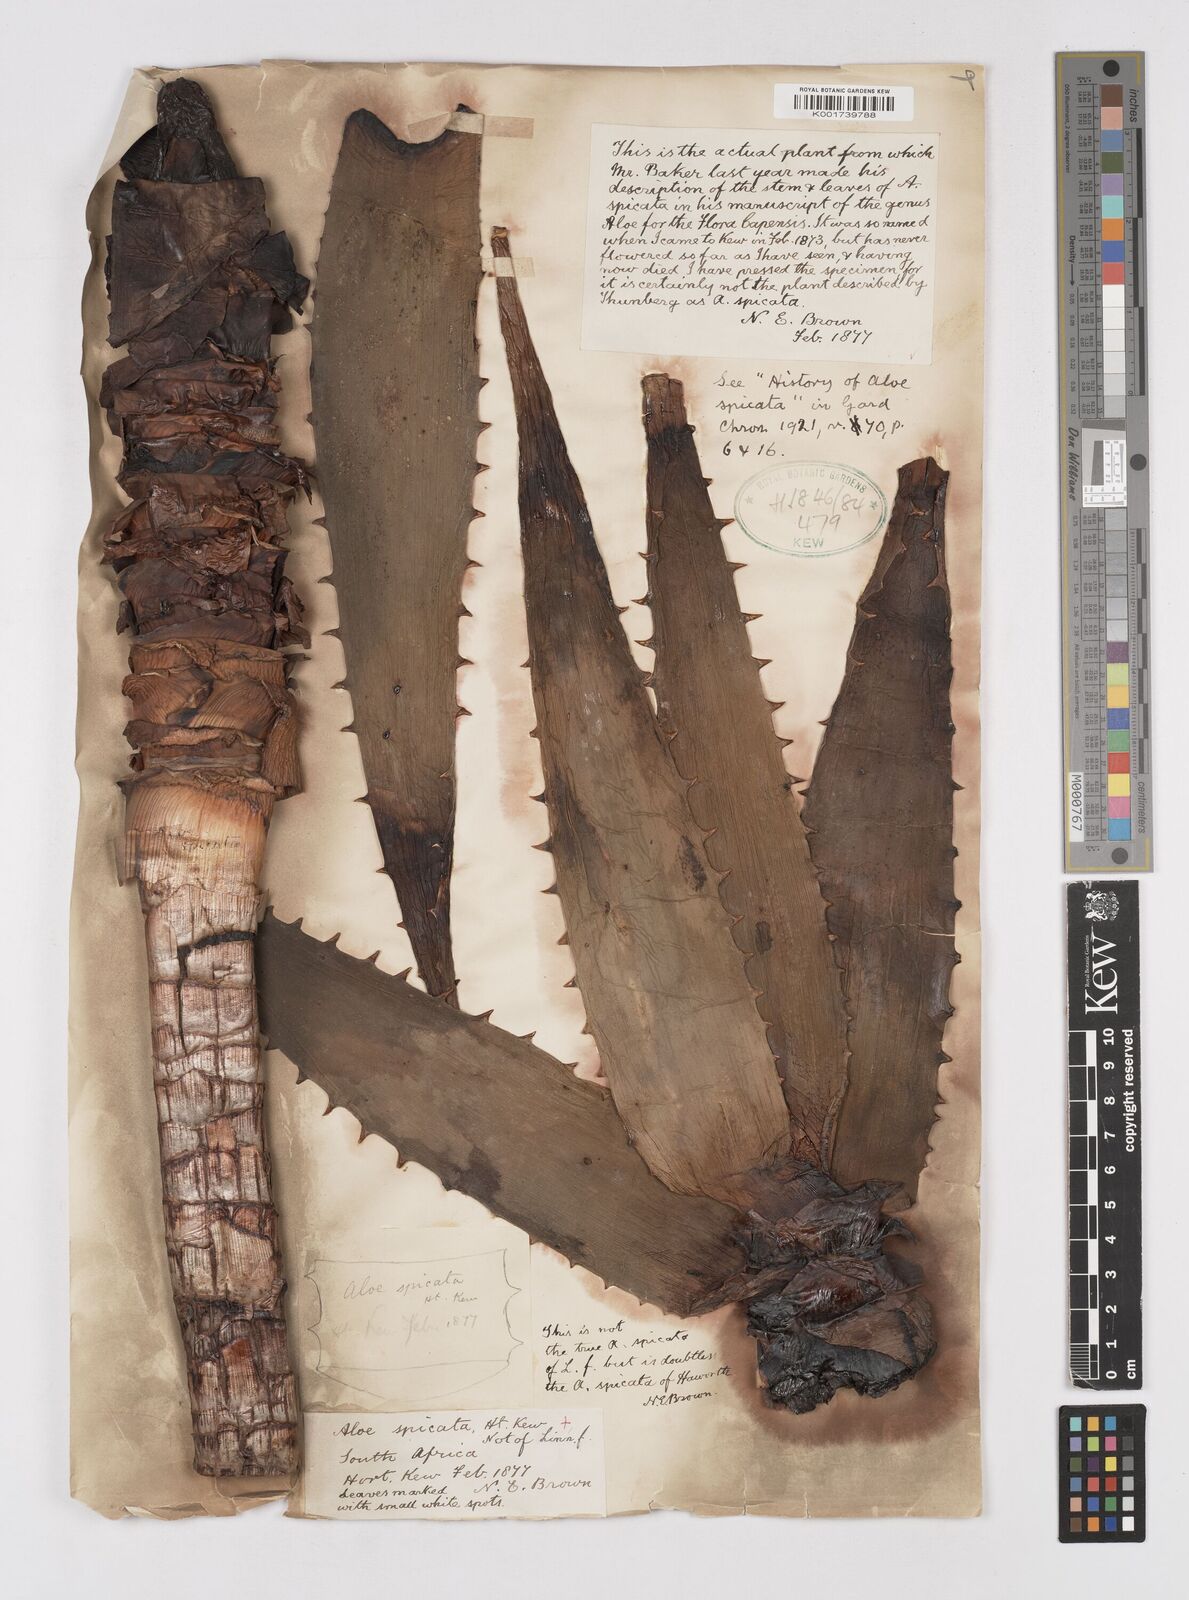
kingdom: Plantae
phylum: Tracheophyta
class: Liliopsida
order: Asparagales
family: Asphodelaceae
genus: Aloe
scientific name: Aloe spicata
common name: Gazaland aloe
